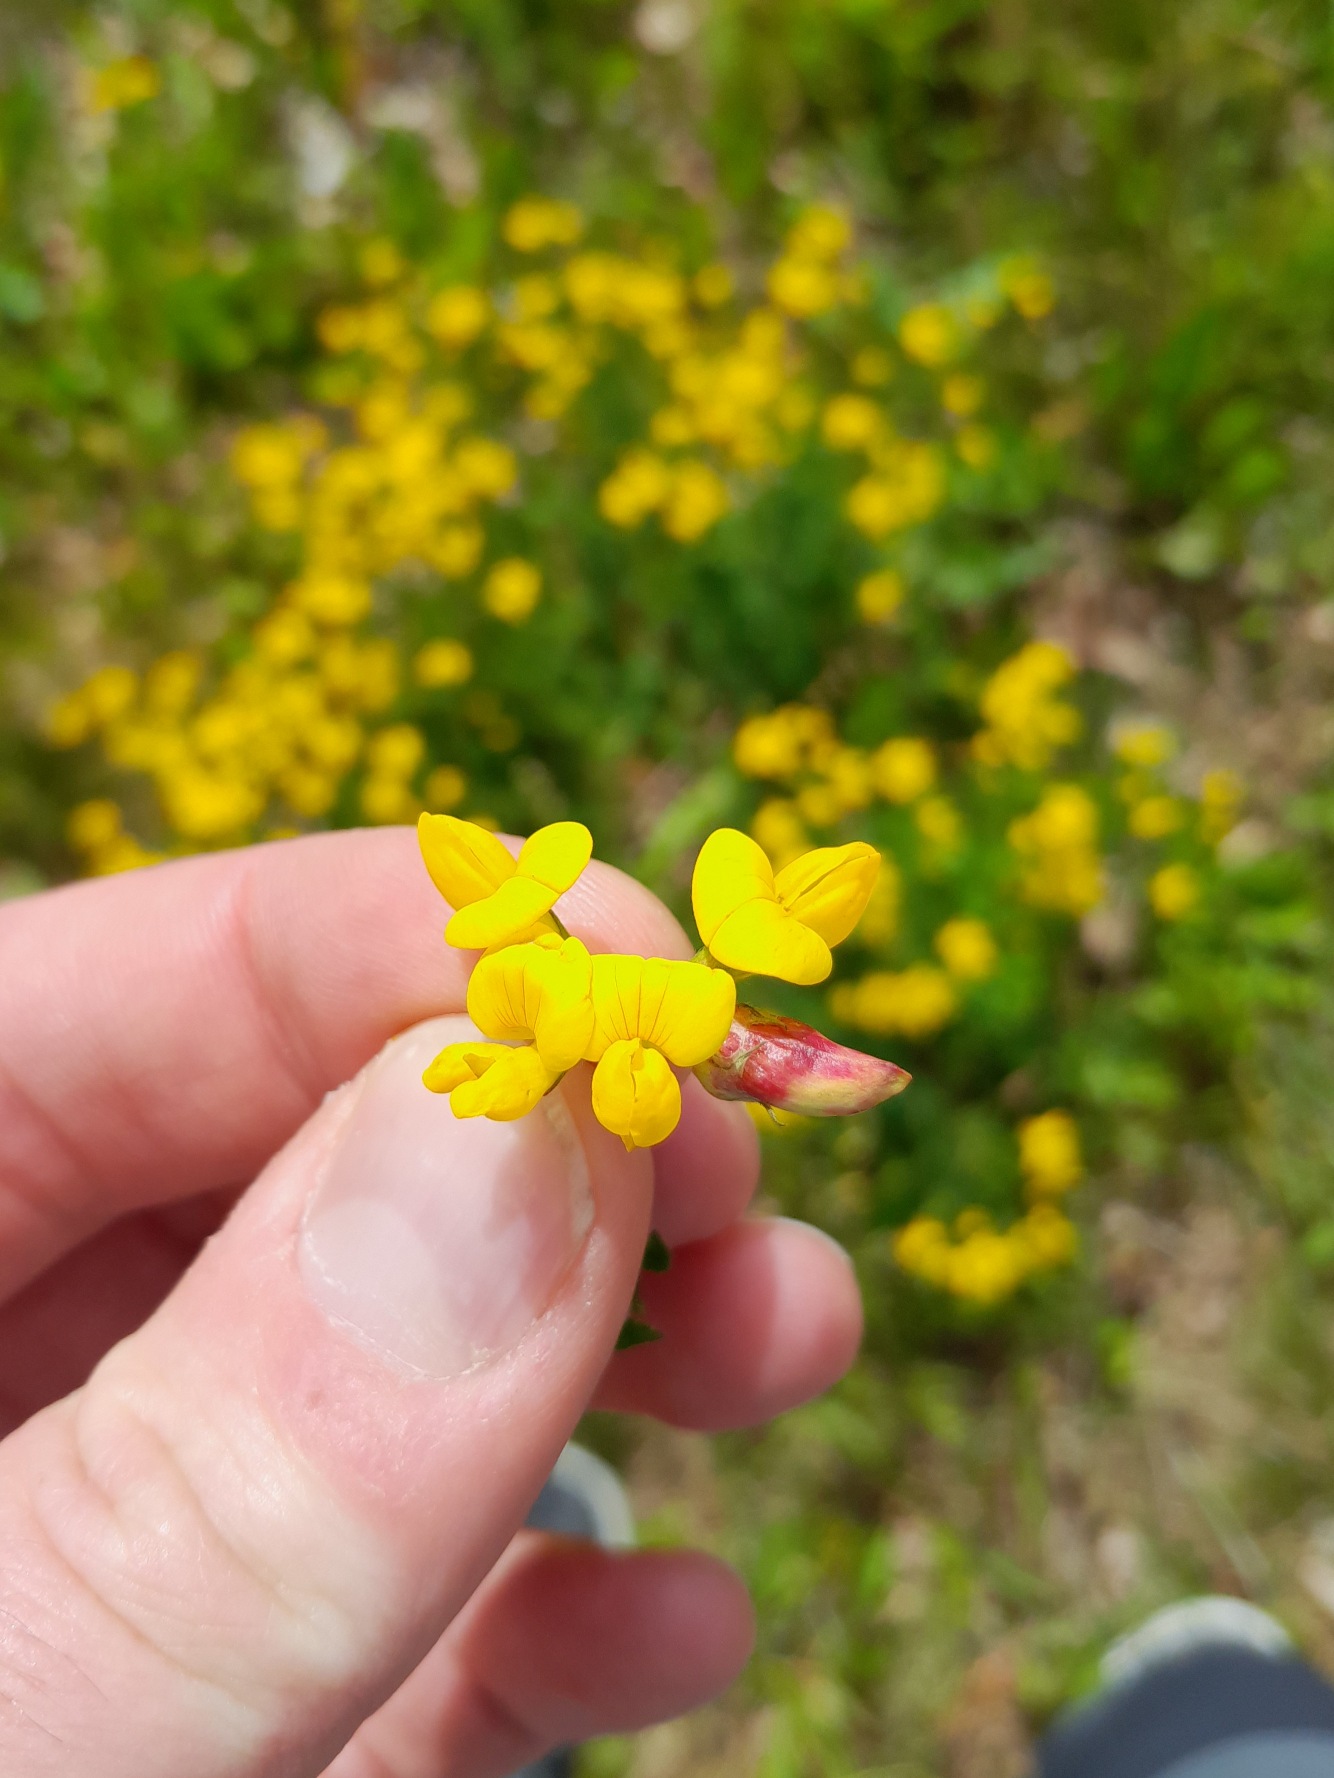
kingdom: Animalia
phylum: Arthropoda
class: Insecta
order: Diptera
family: Cecidomyiidae
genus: Contarinia
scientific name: Contarinia loti
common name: Kællingetandblomstgalmyg
